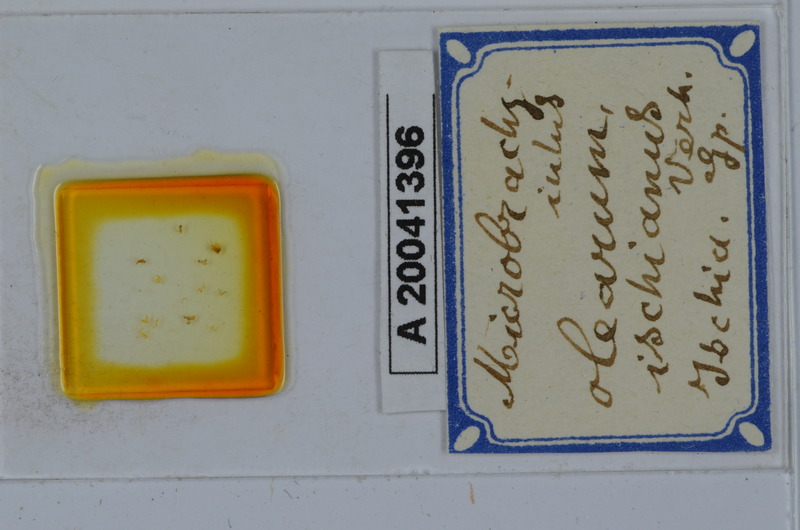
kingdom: Animalia
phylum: Arthropoda
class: Diplopoda
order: Julida
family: Julidae
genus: Microbrachyiulus
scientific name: Microbrachyiulus olearum
